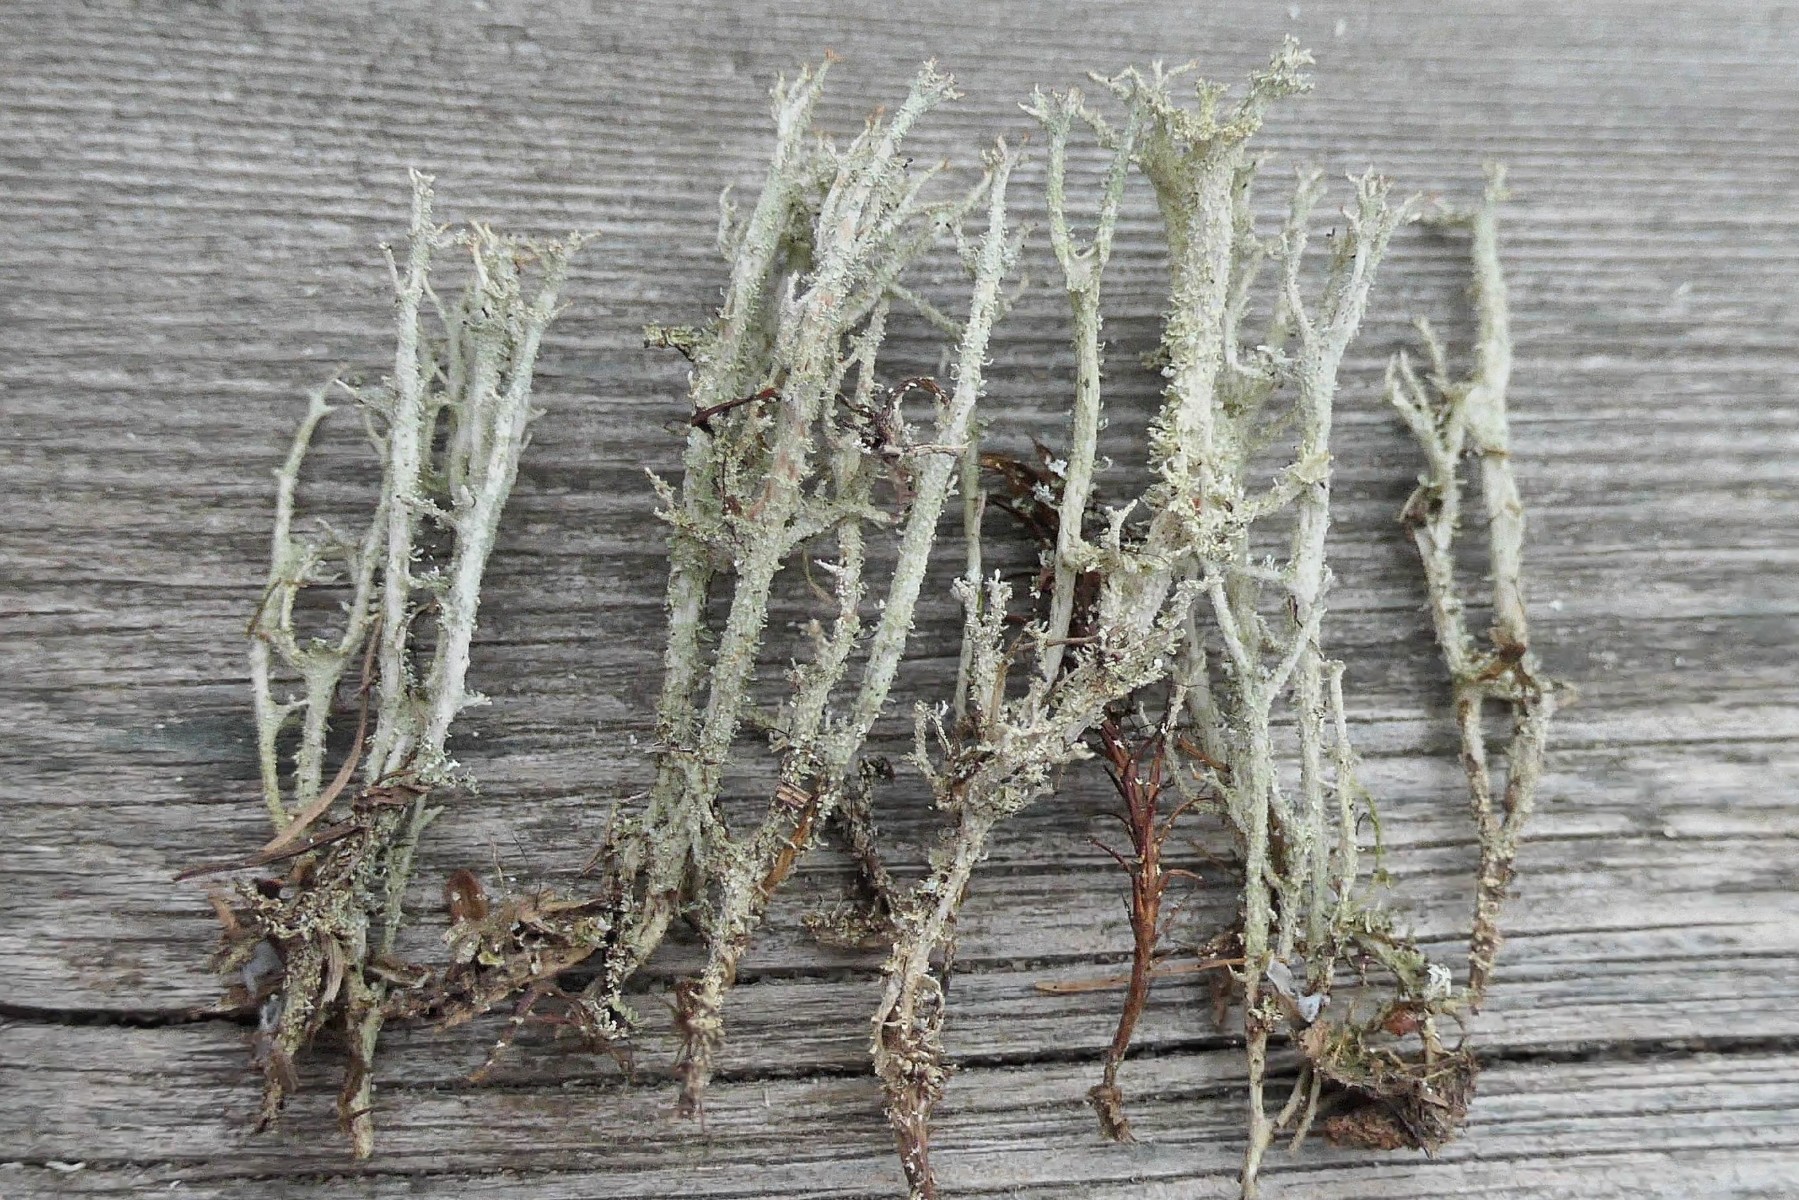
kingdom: Fungi
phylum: Ascomycota
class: Lecanoromycetes
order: Lecanorales
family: Cladoniaceae
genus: Cladonia
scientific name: Cladonia squamosa
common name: skælklædt bægerlav
